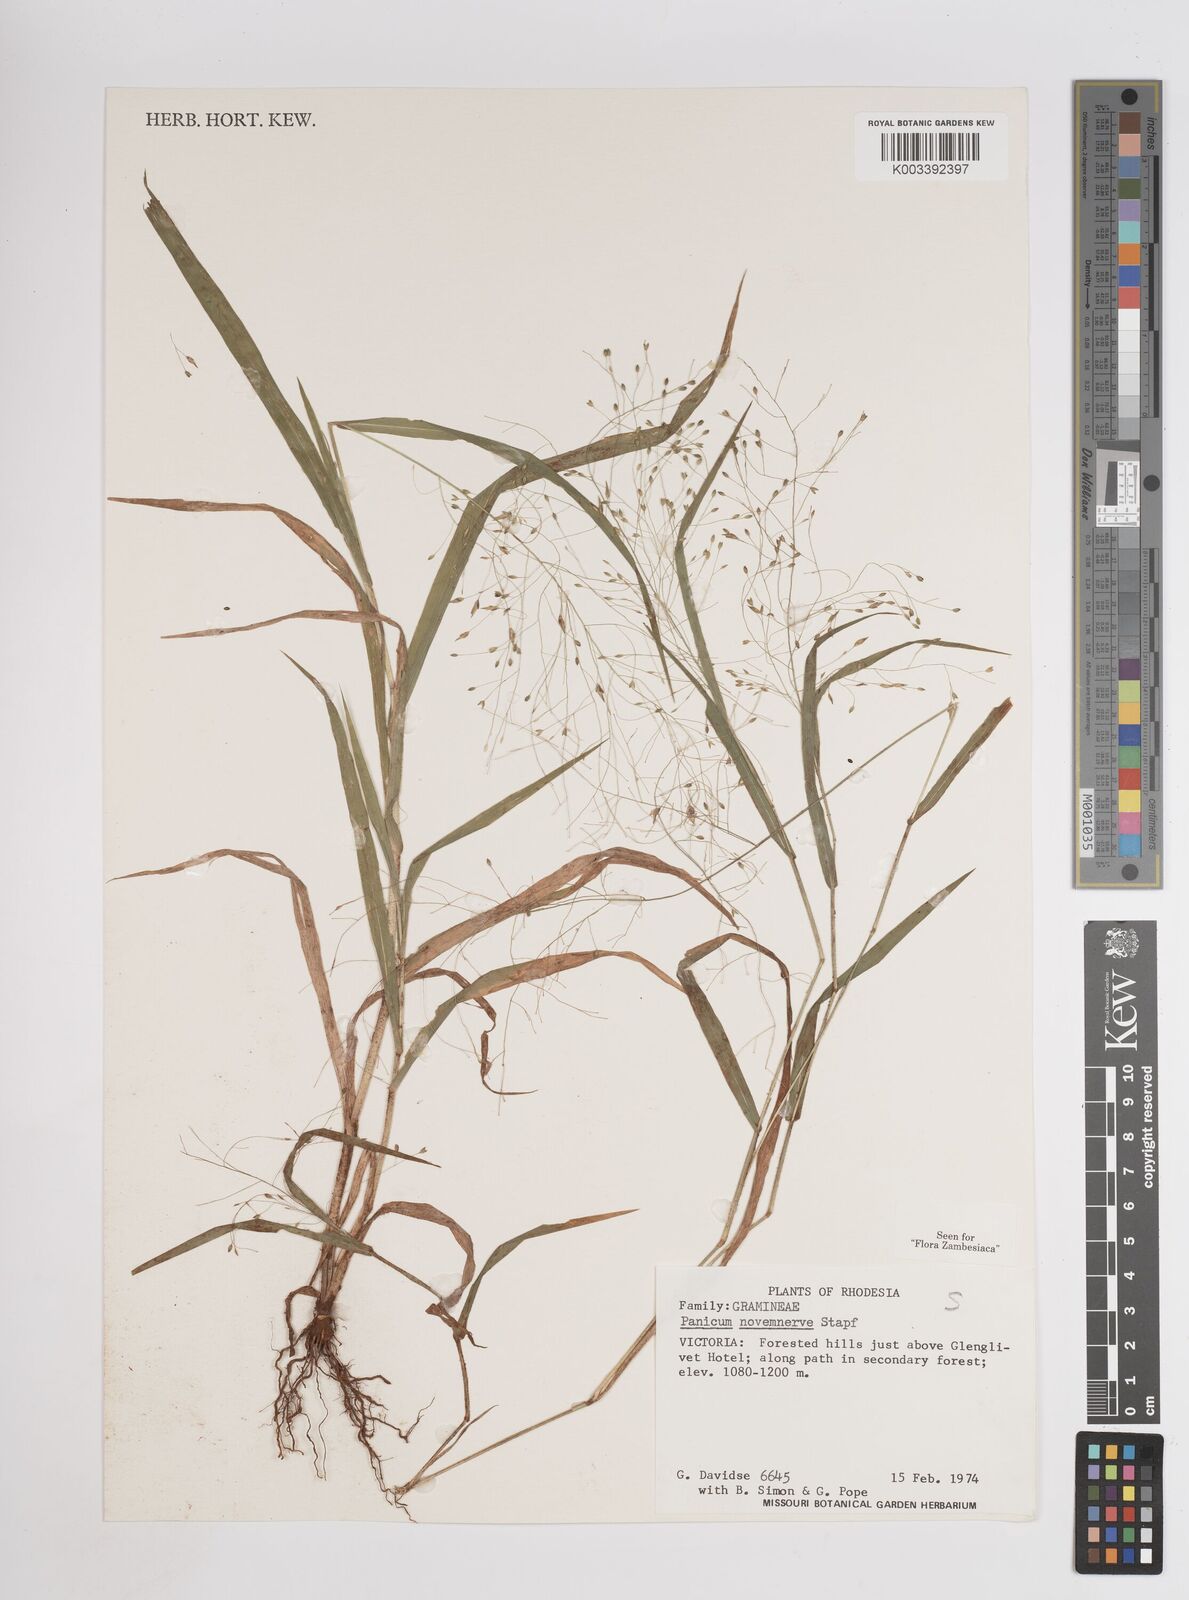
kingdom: Plantae
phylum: Tracheophyta
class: Liliopsida
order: Poales
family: Poaceae
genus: Panicum
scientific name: Panicum novemnerve
